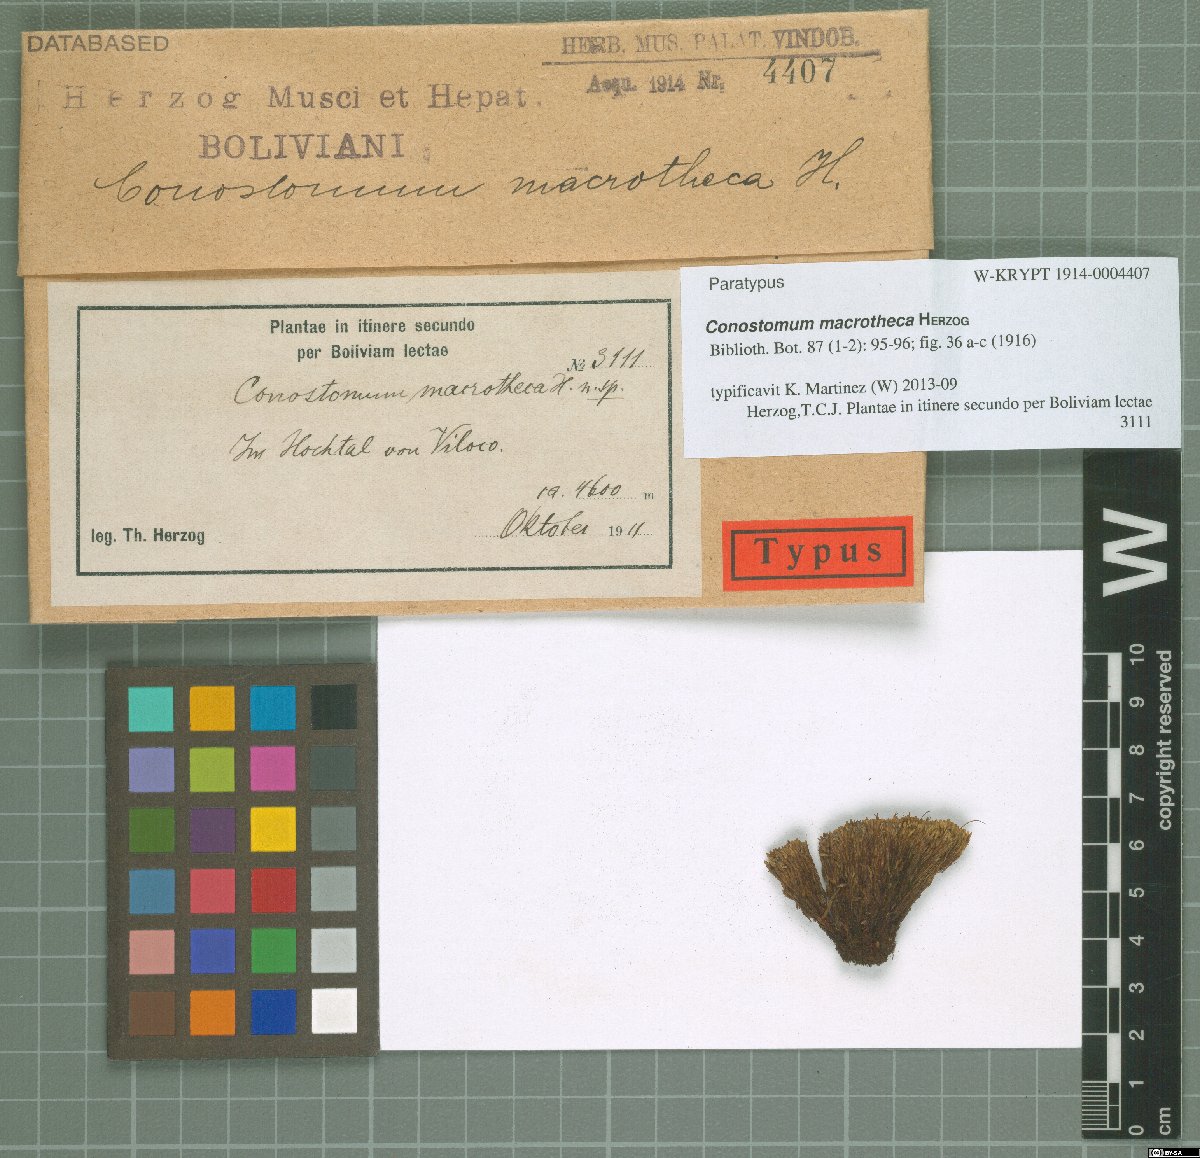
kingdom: Plantae
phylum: Bryophyta
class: Bryopsida
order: Bartramiales
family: Bartramiaceae
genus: Conostomum
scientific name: Conostomum macrotheca
